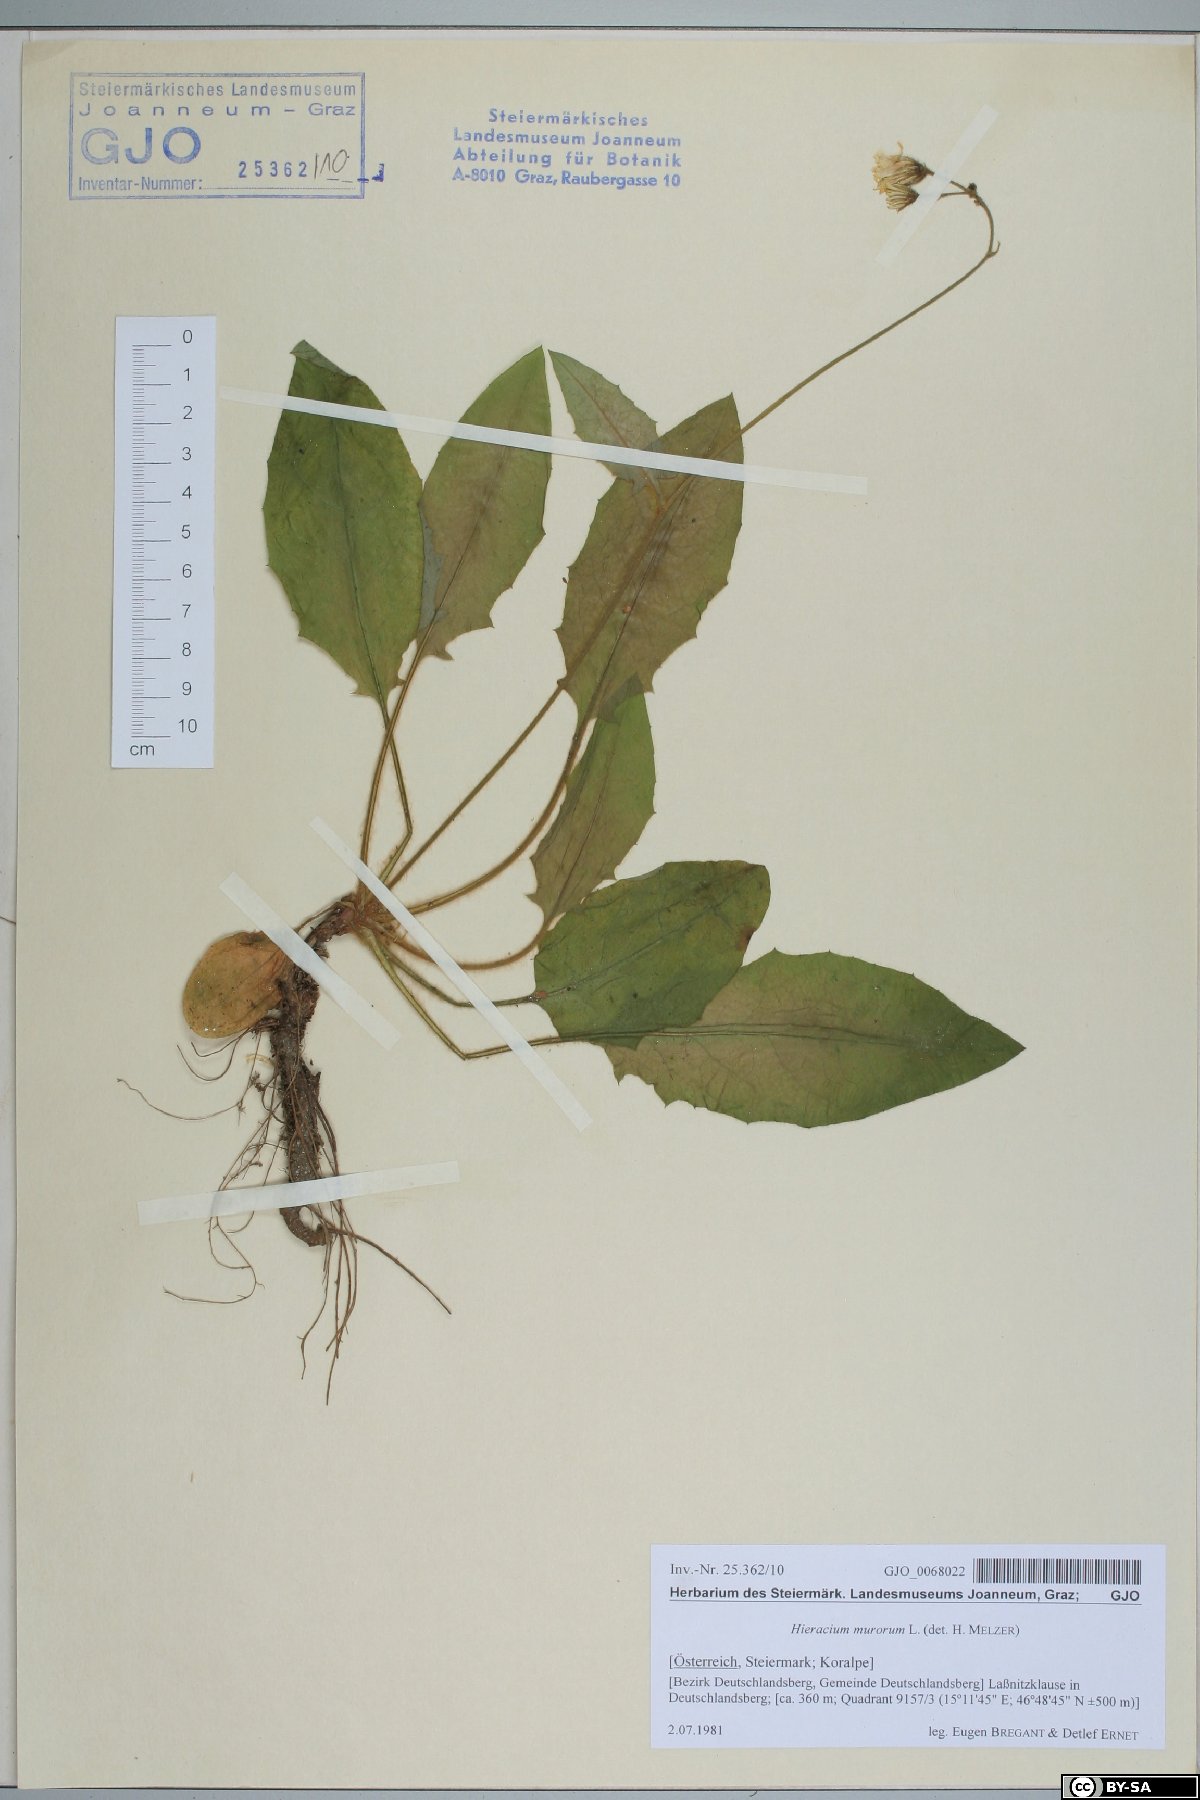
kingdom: Plantae
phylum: Tracheophyta
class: Magnoliopsida
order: Asterales
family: Asteraceae
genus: Hieracium
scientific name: Hieracium murorum
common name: Wall hawkweed
